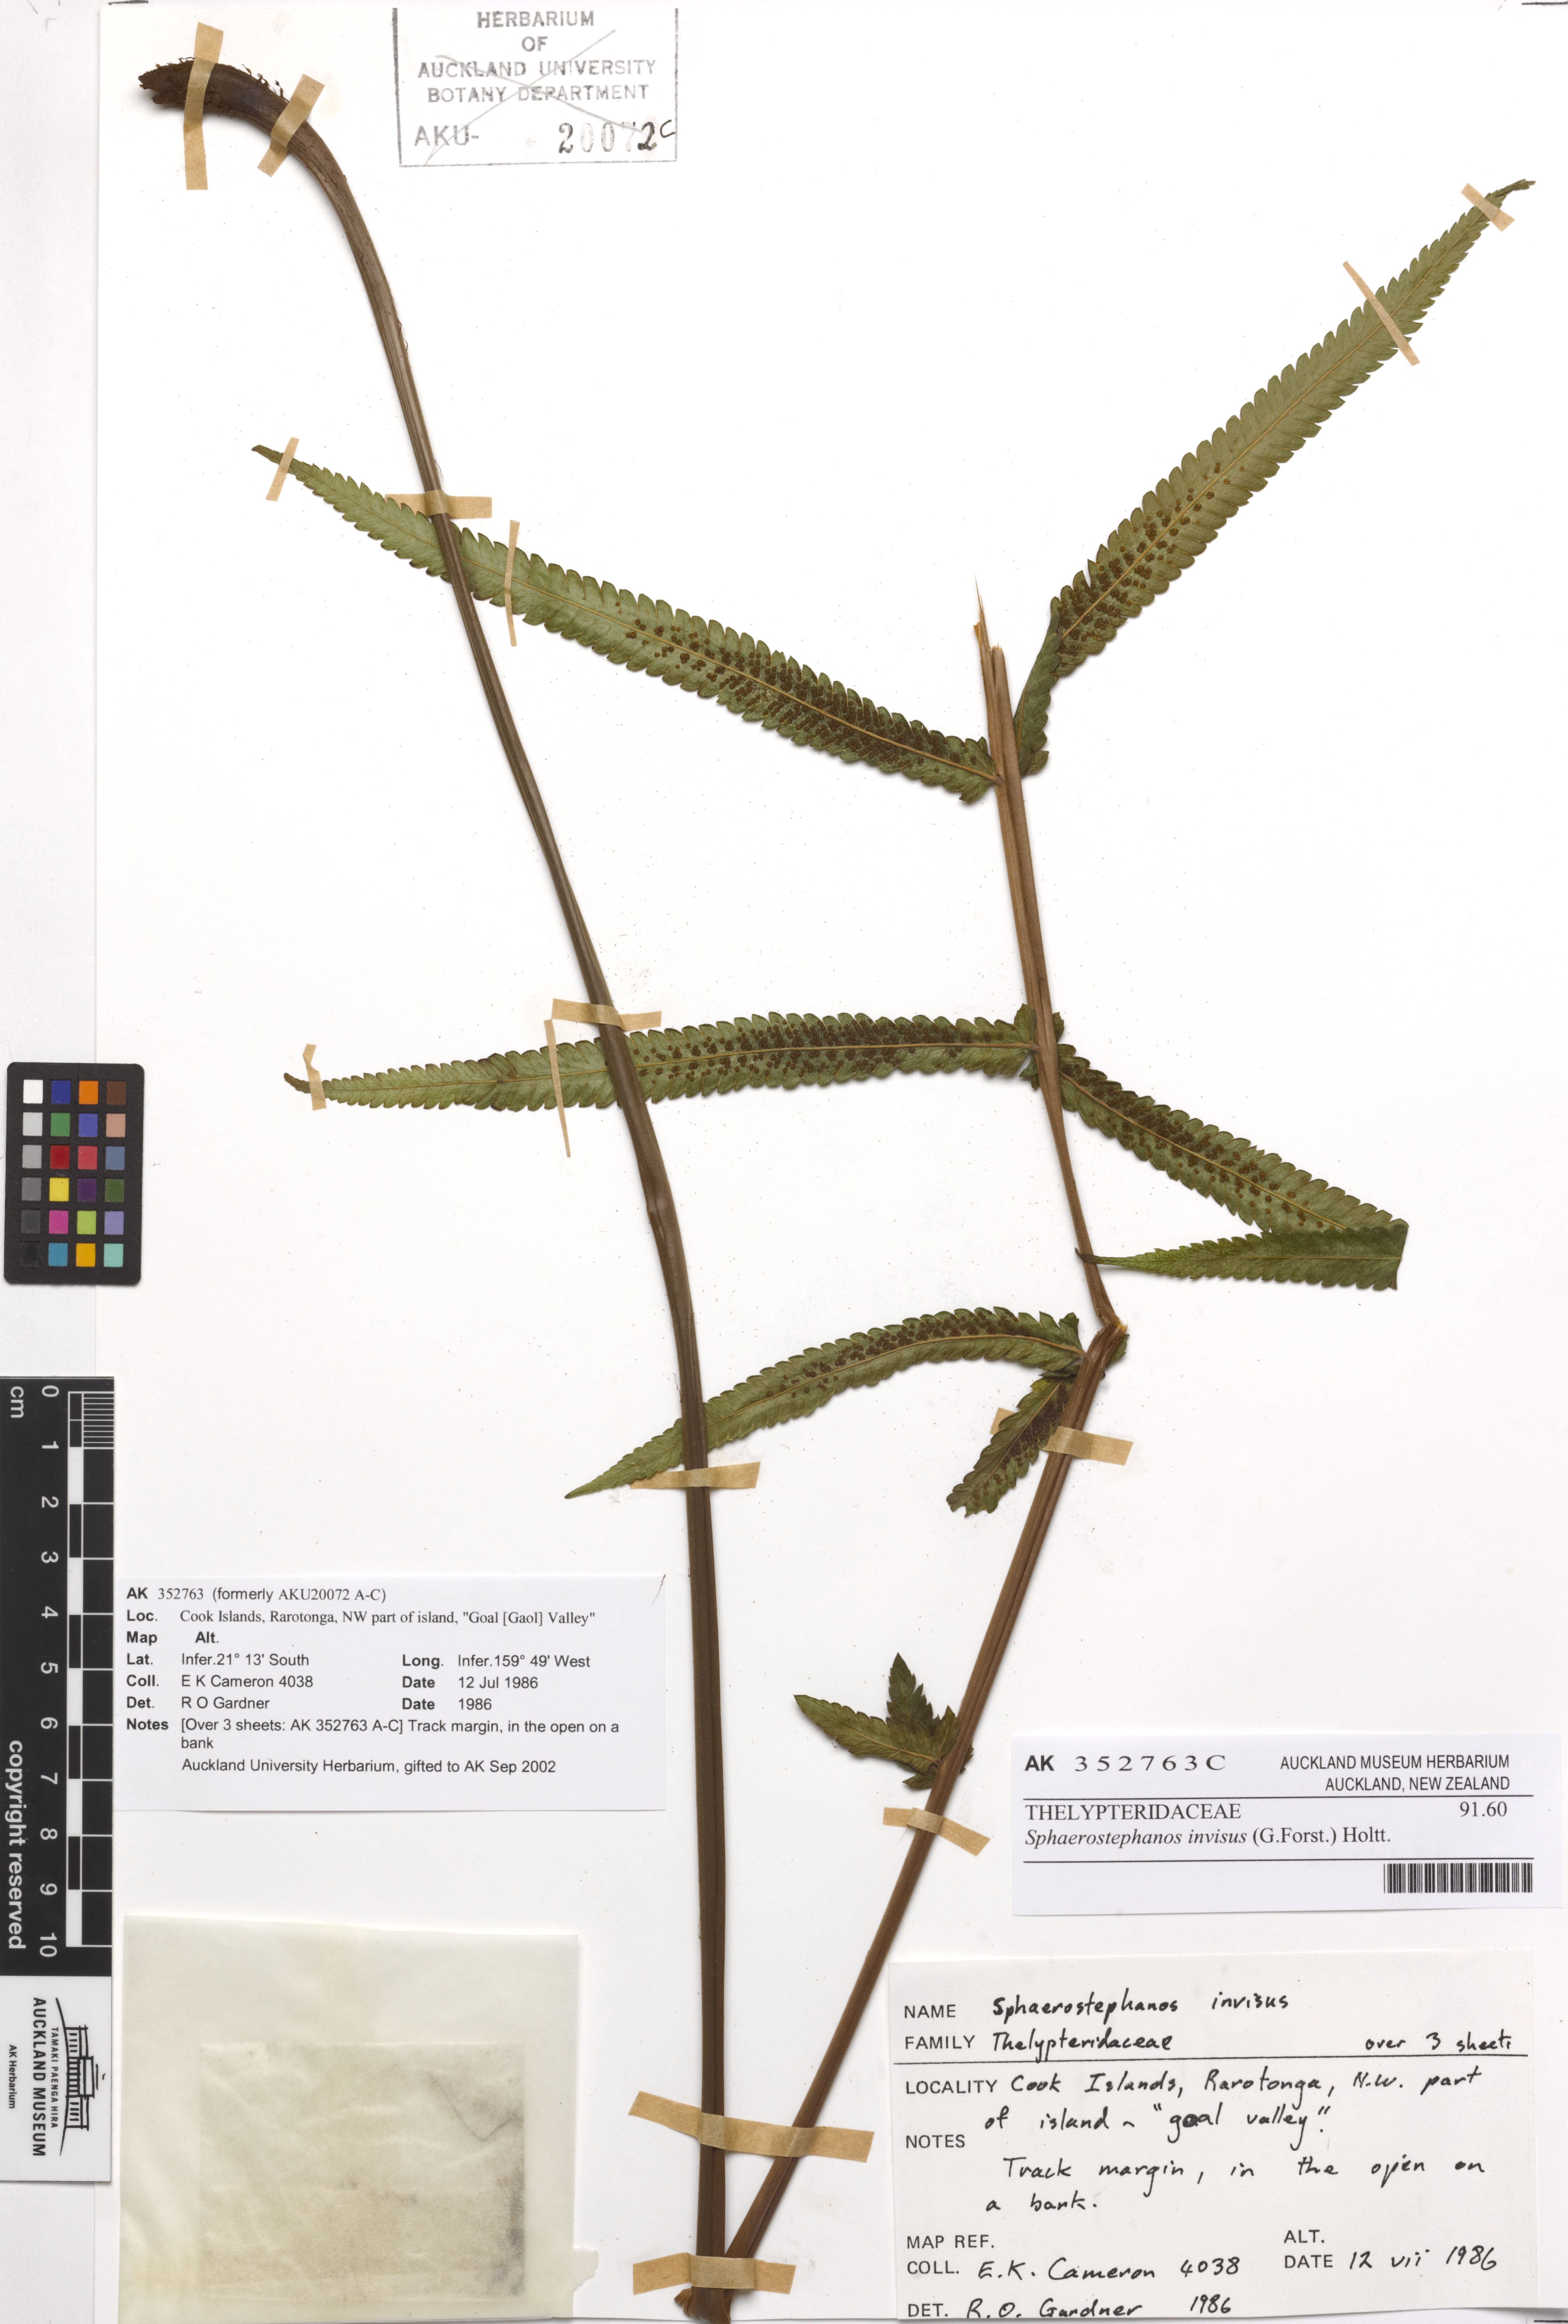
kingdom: Plantae
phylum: Tracheophyta
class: Polypodiopsida
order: Polypodiales
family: Thelypteridaceae
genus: Strophocaulon
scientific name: Strophocaulon invisum
